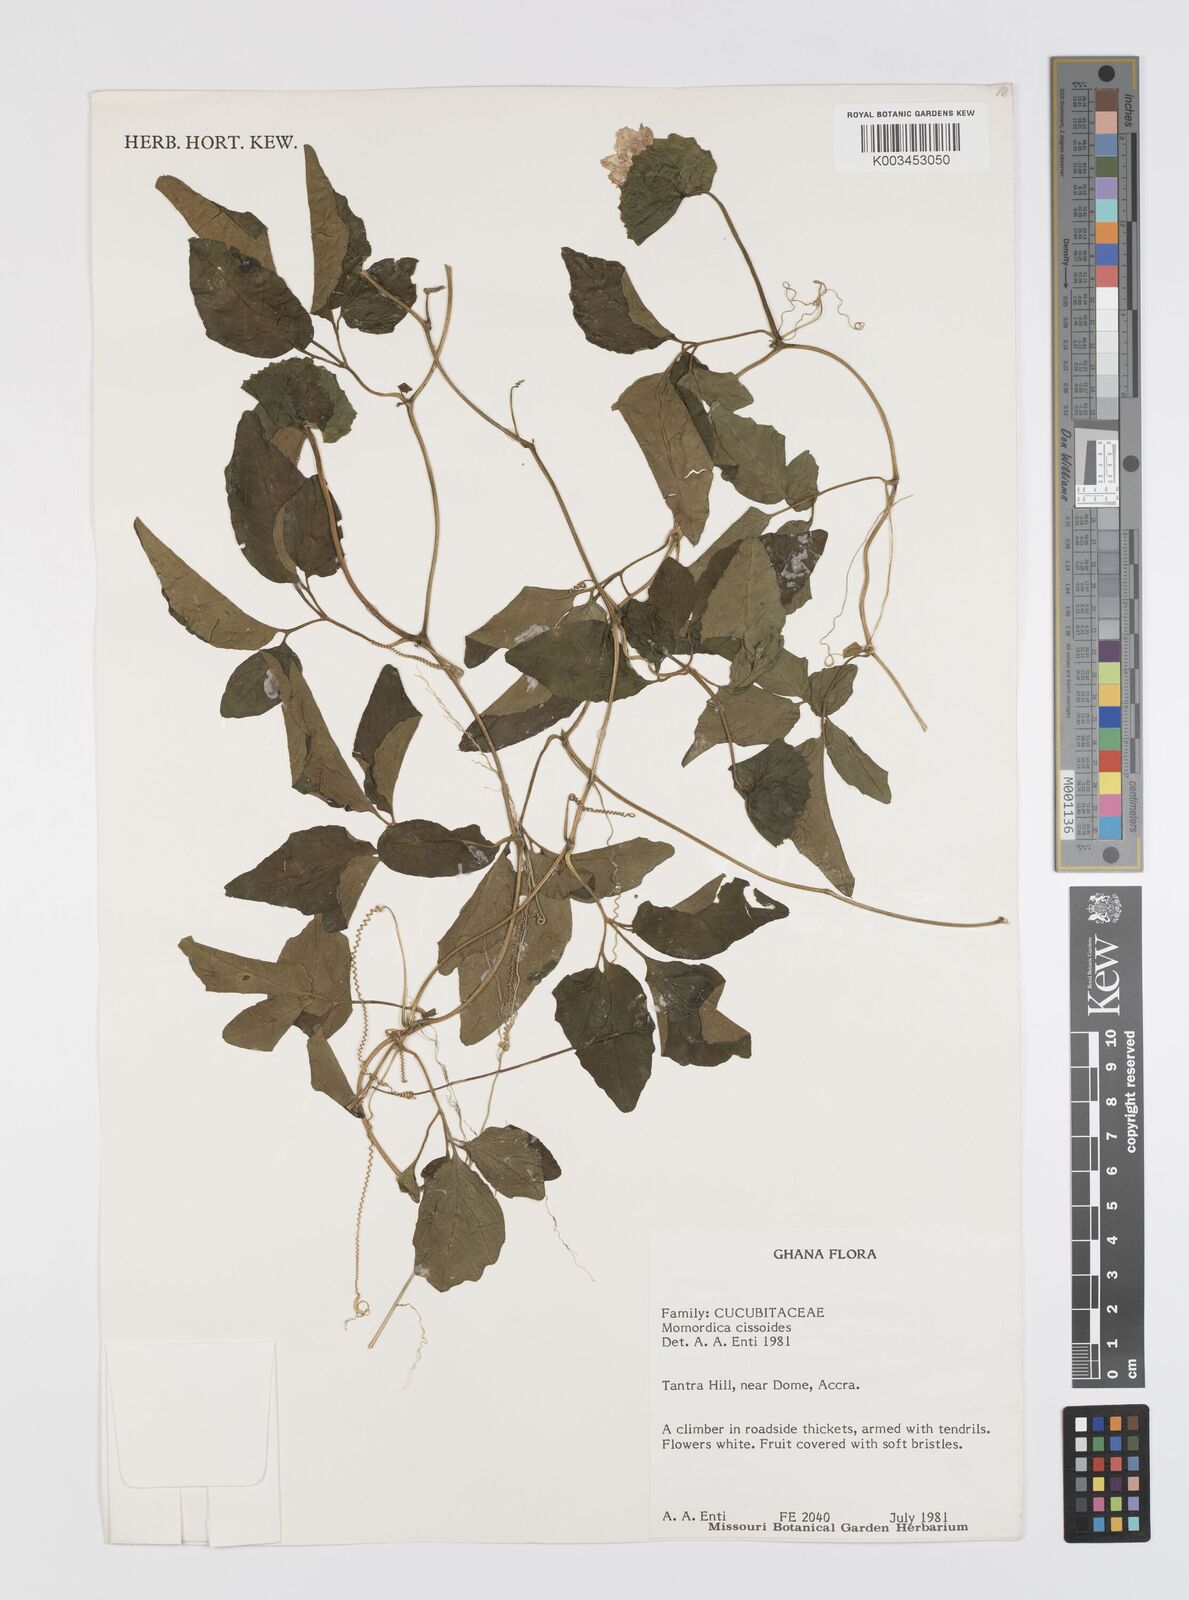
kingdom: Plantae
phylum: Tracheophyta
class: Magnoliopsida
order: Cucurbitales
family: Cucurbitaceae
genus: Momordica
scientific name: Momordica cissoides
